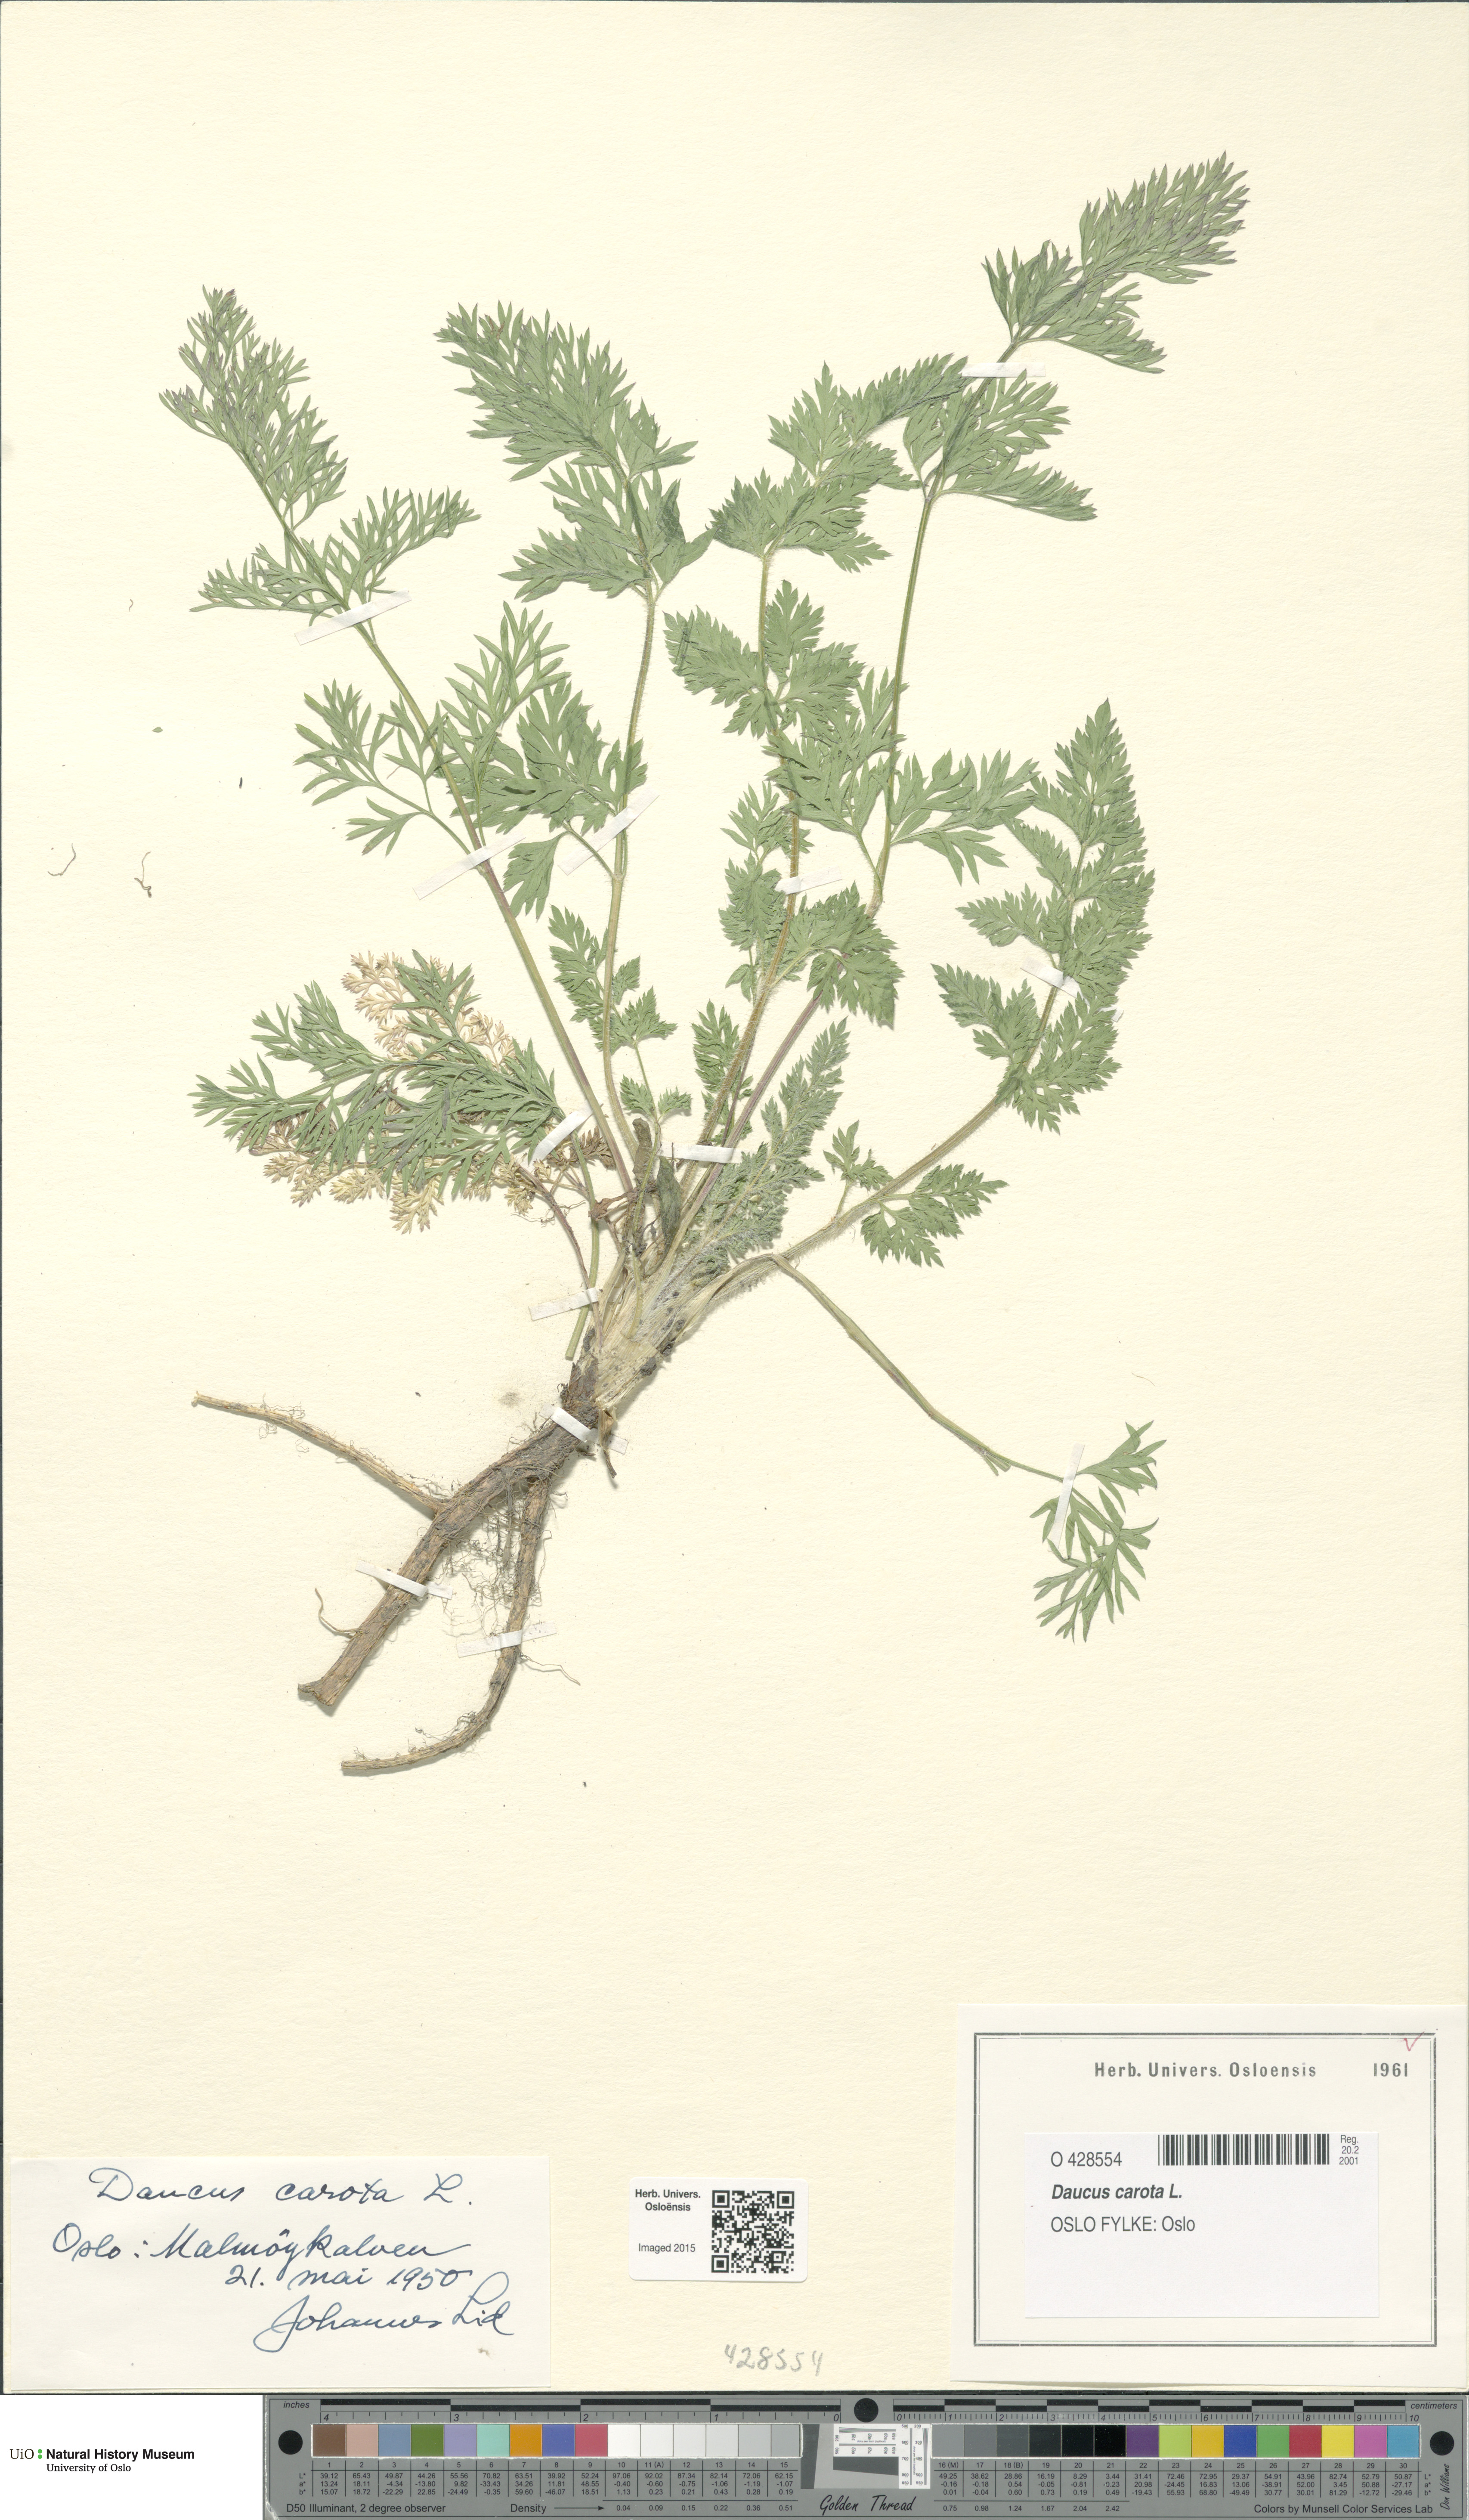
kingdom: Plantae
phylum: Tracheophyta
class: Magnoliopsida
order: Apiales
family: Apiaceae
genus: Daucus
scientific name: Daucus carota
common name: Wild carrot
